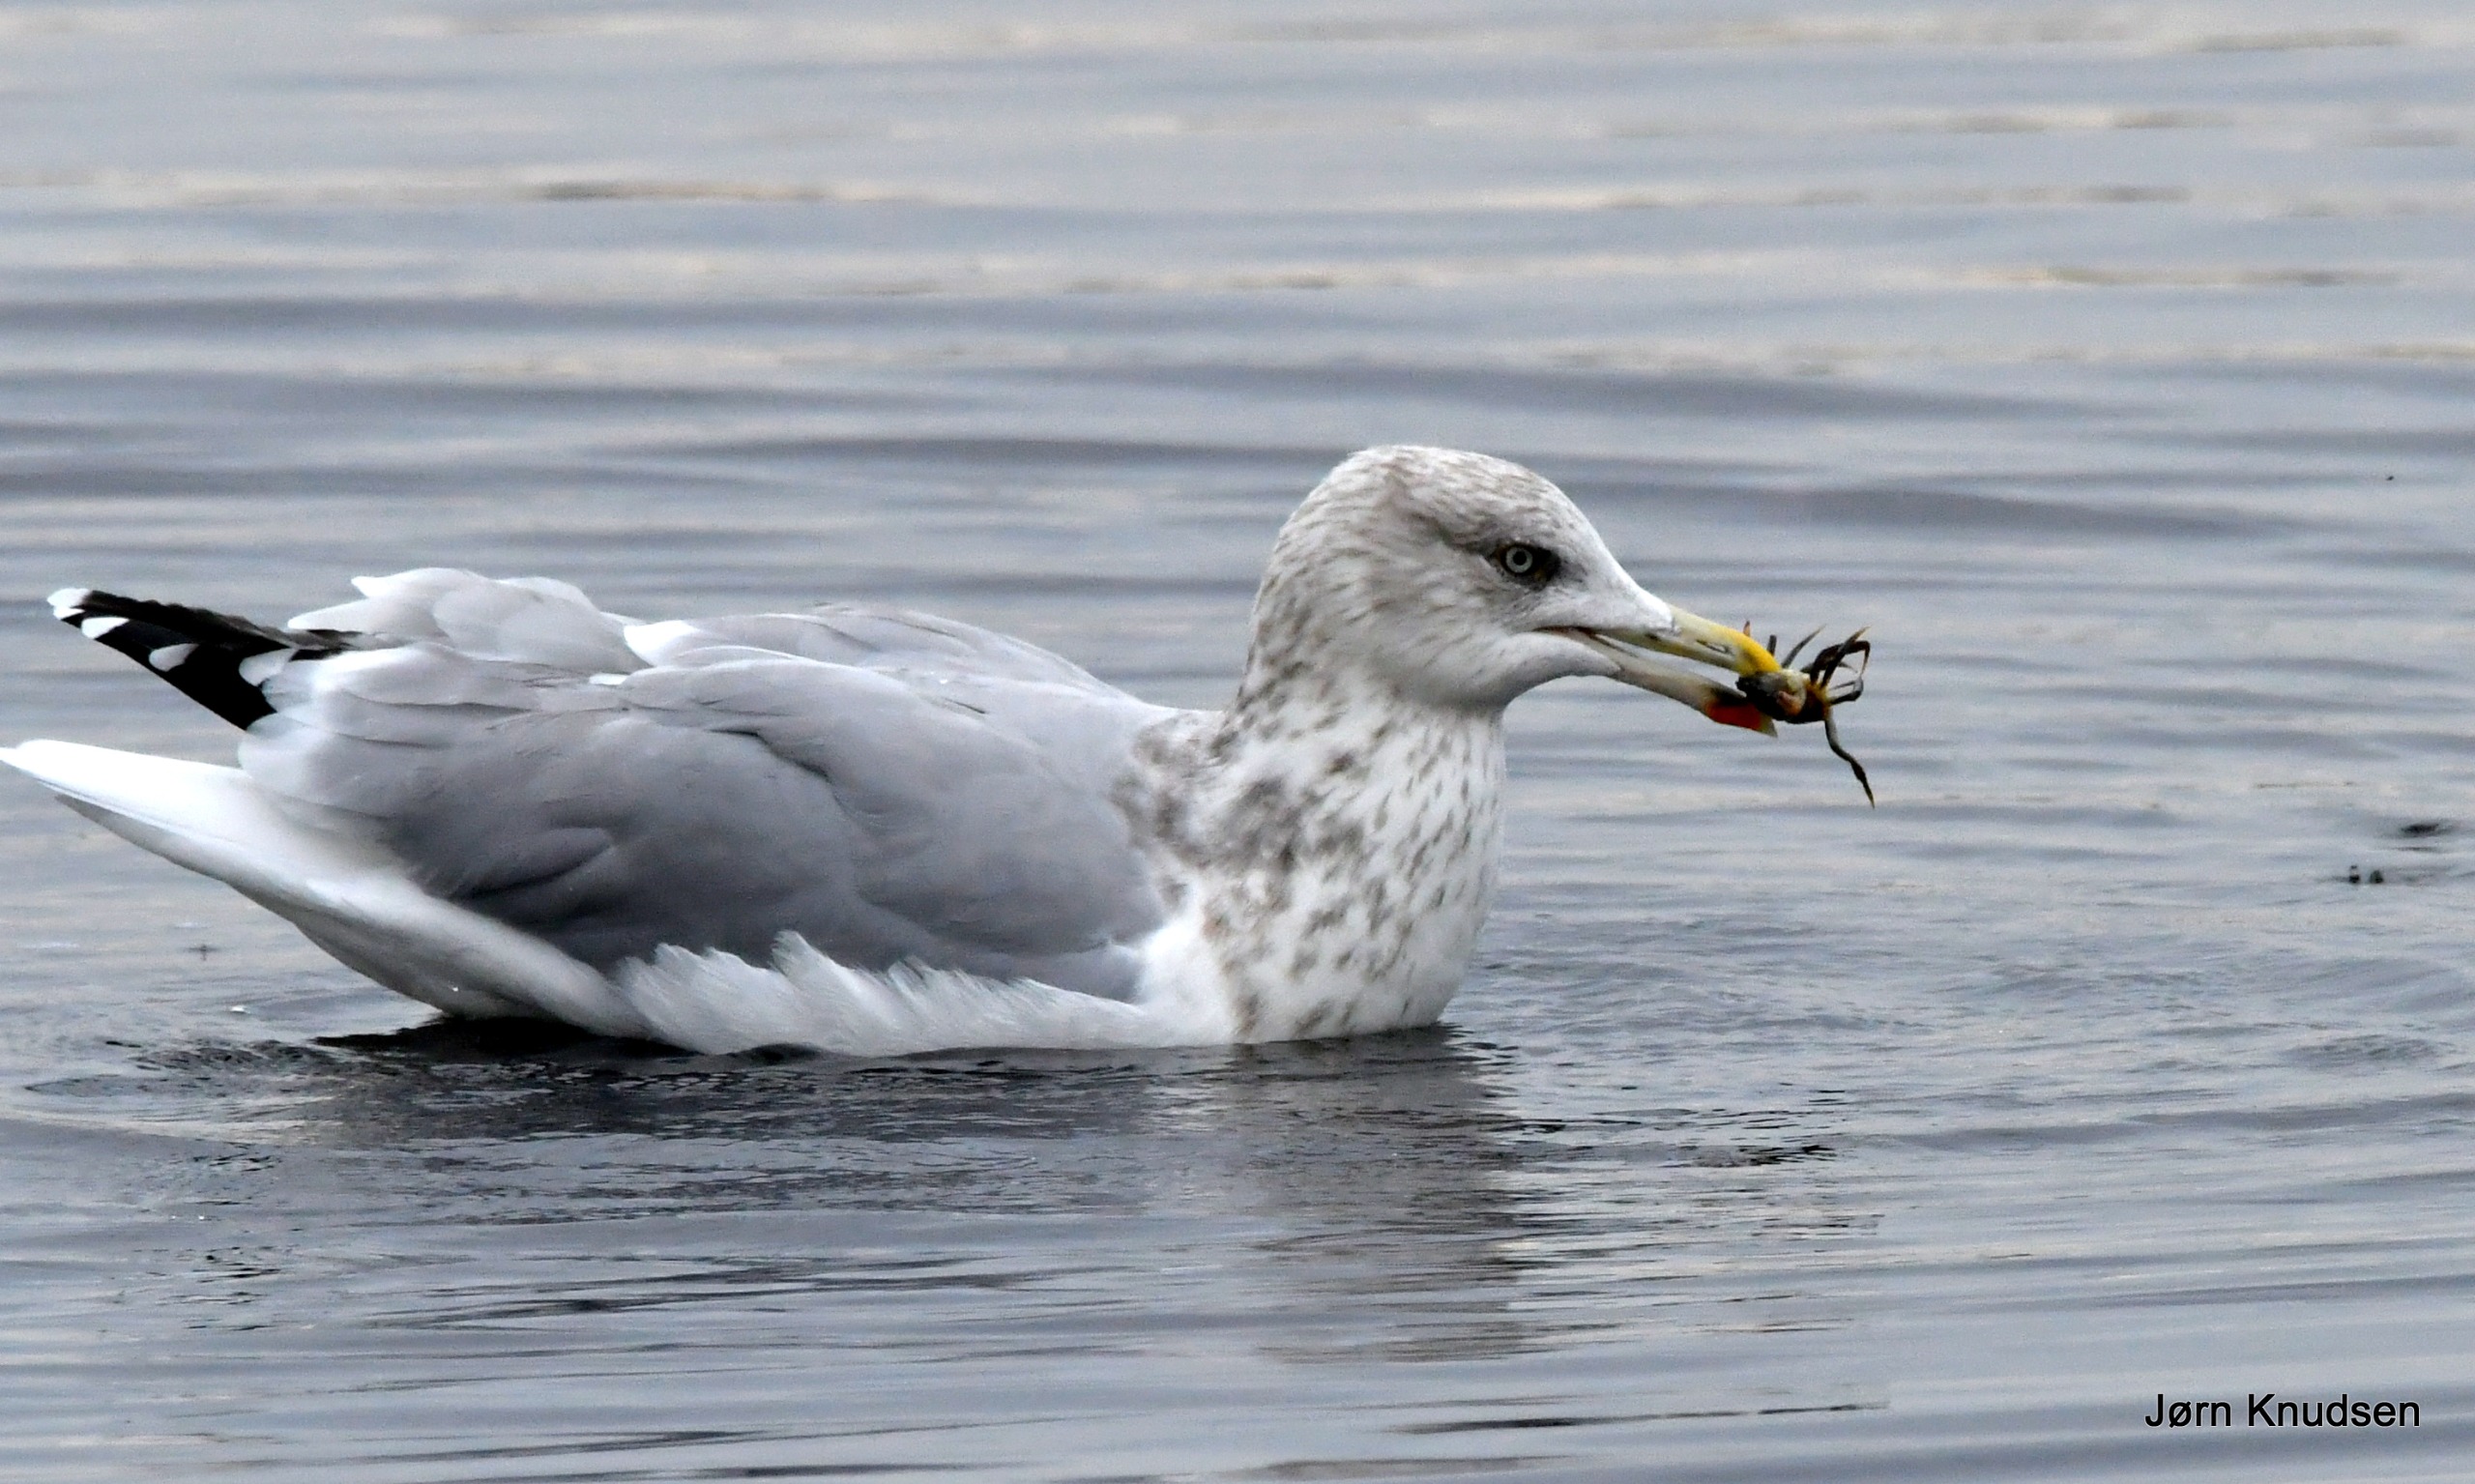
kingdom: Animalia
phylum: Chordata
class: Aves
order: Charadriiformes
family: Laridae
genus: Larus
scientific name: Larus argentatus
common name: Sølvmåge
